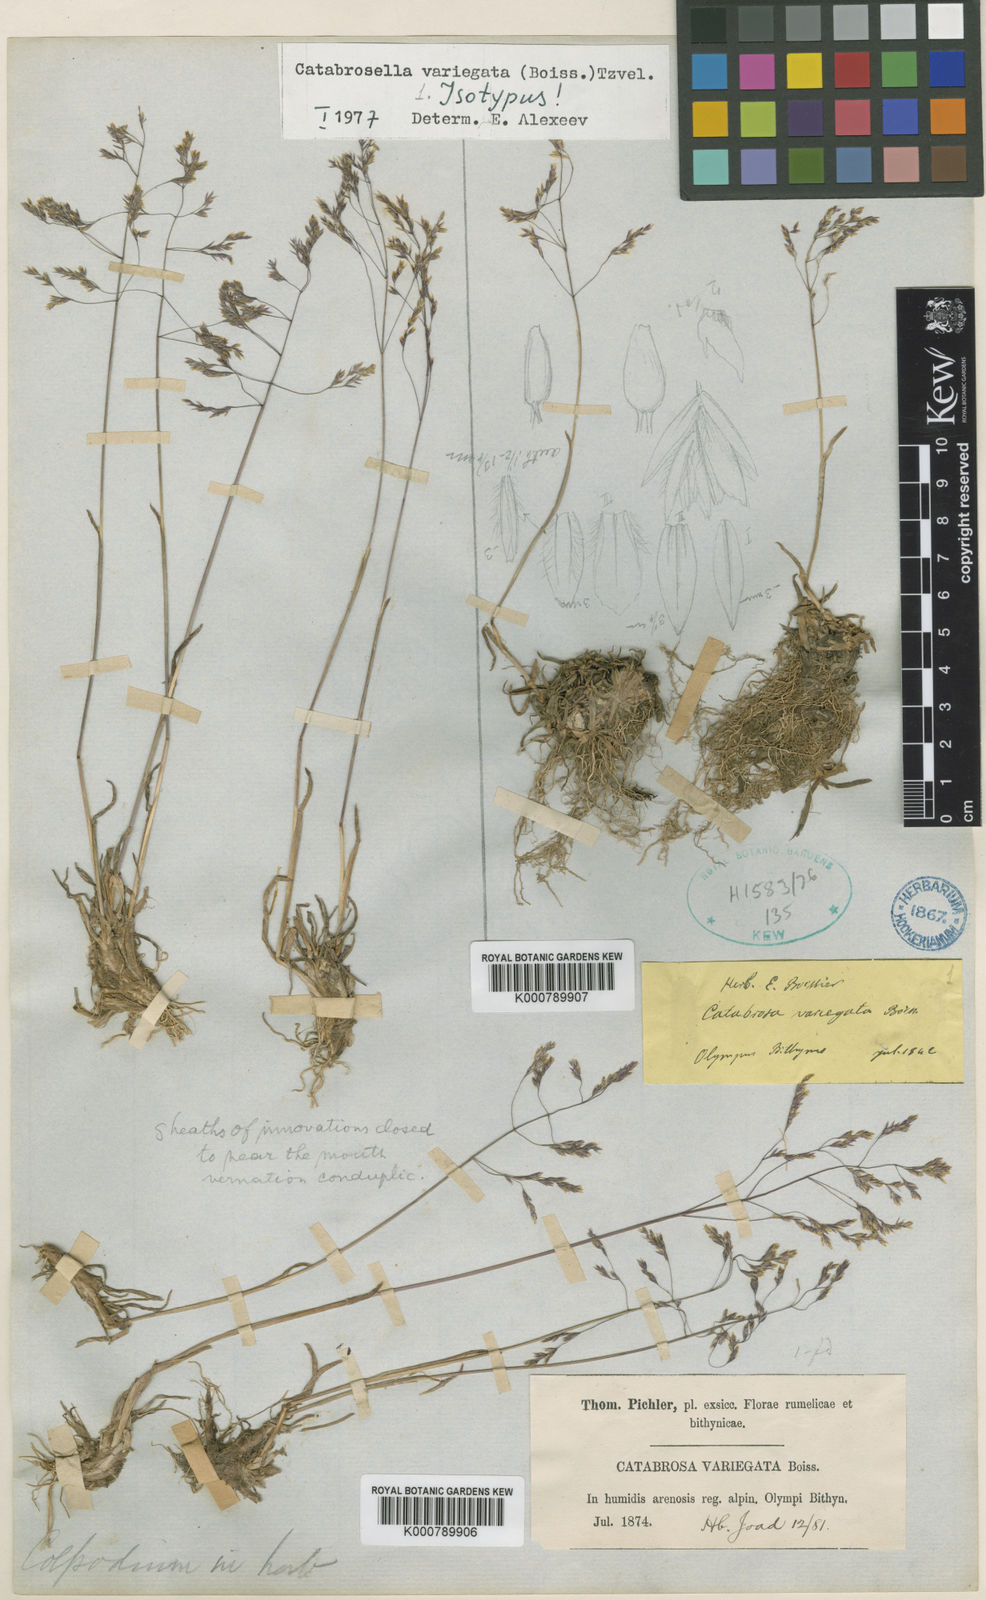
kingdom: Plantae
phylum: Tracheophyta
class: Liliopsida
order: Poales
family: Poaceae
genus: Catabrosella
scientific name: Catabrosella variegata
